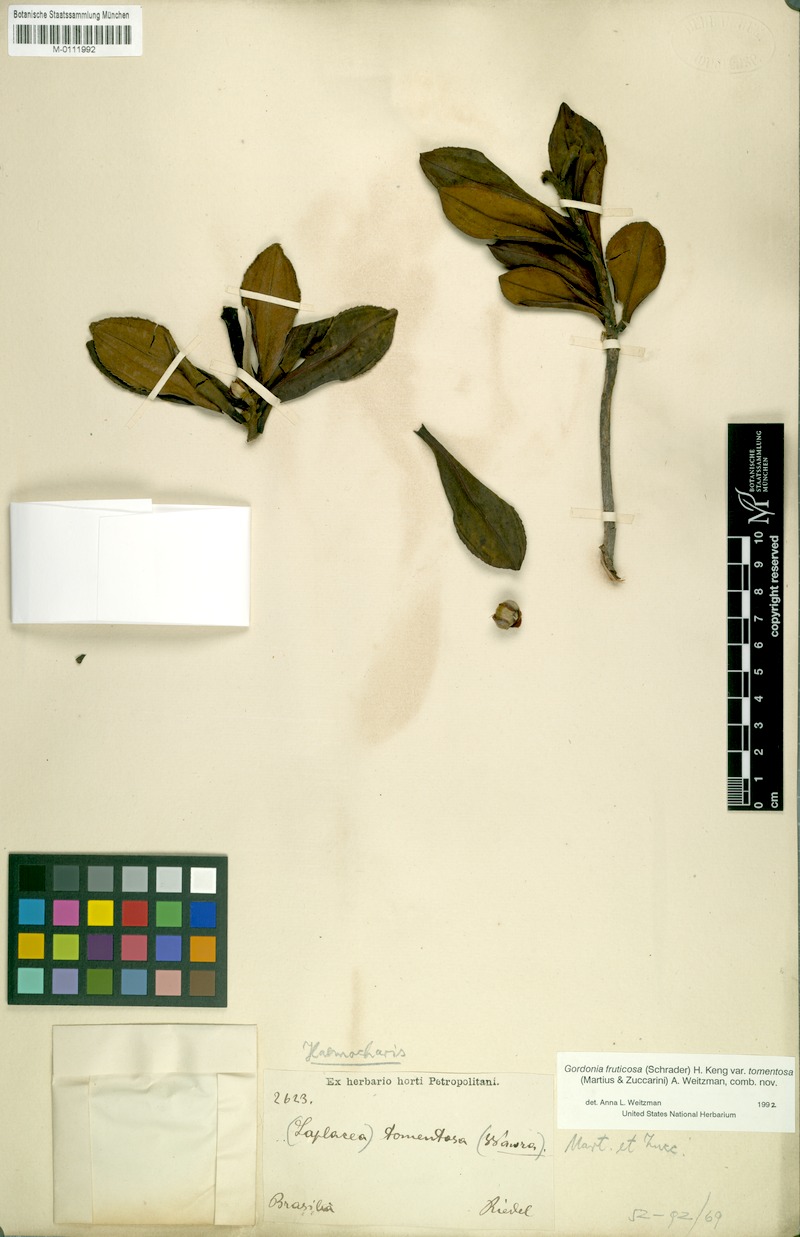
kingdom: Plantae
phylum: Tracheophyta
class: Magnoliopsida
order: Ericales
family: Theaceae
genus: Gordonia
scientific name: Gordonia tomentosa
